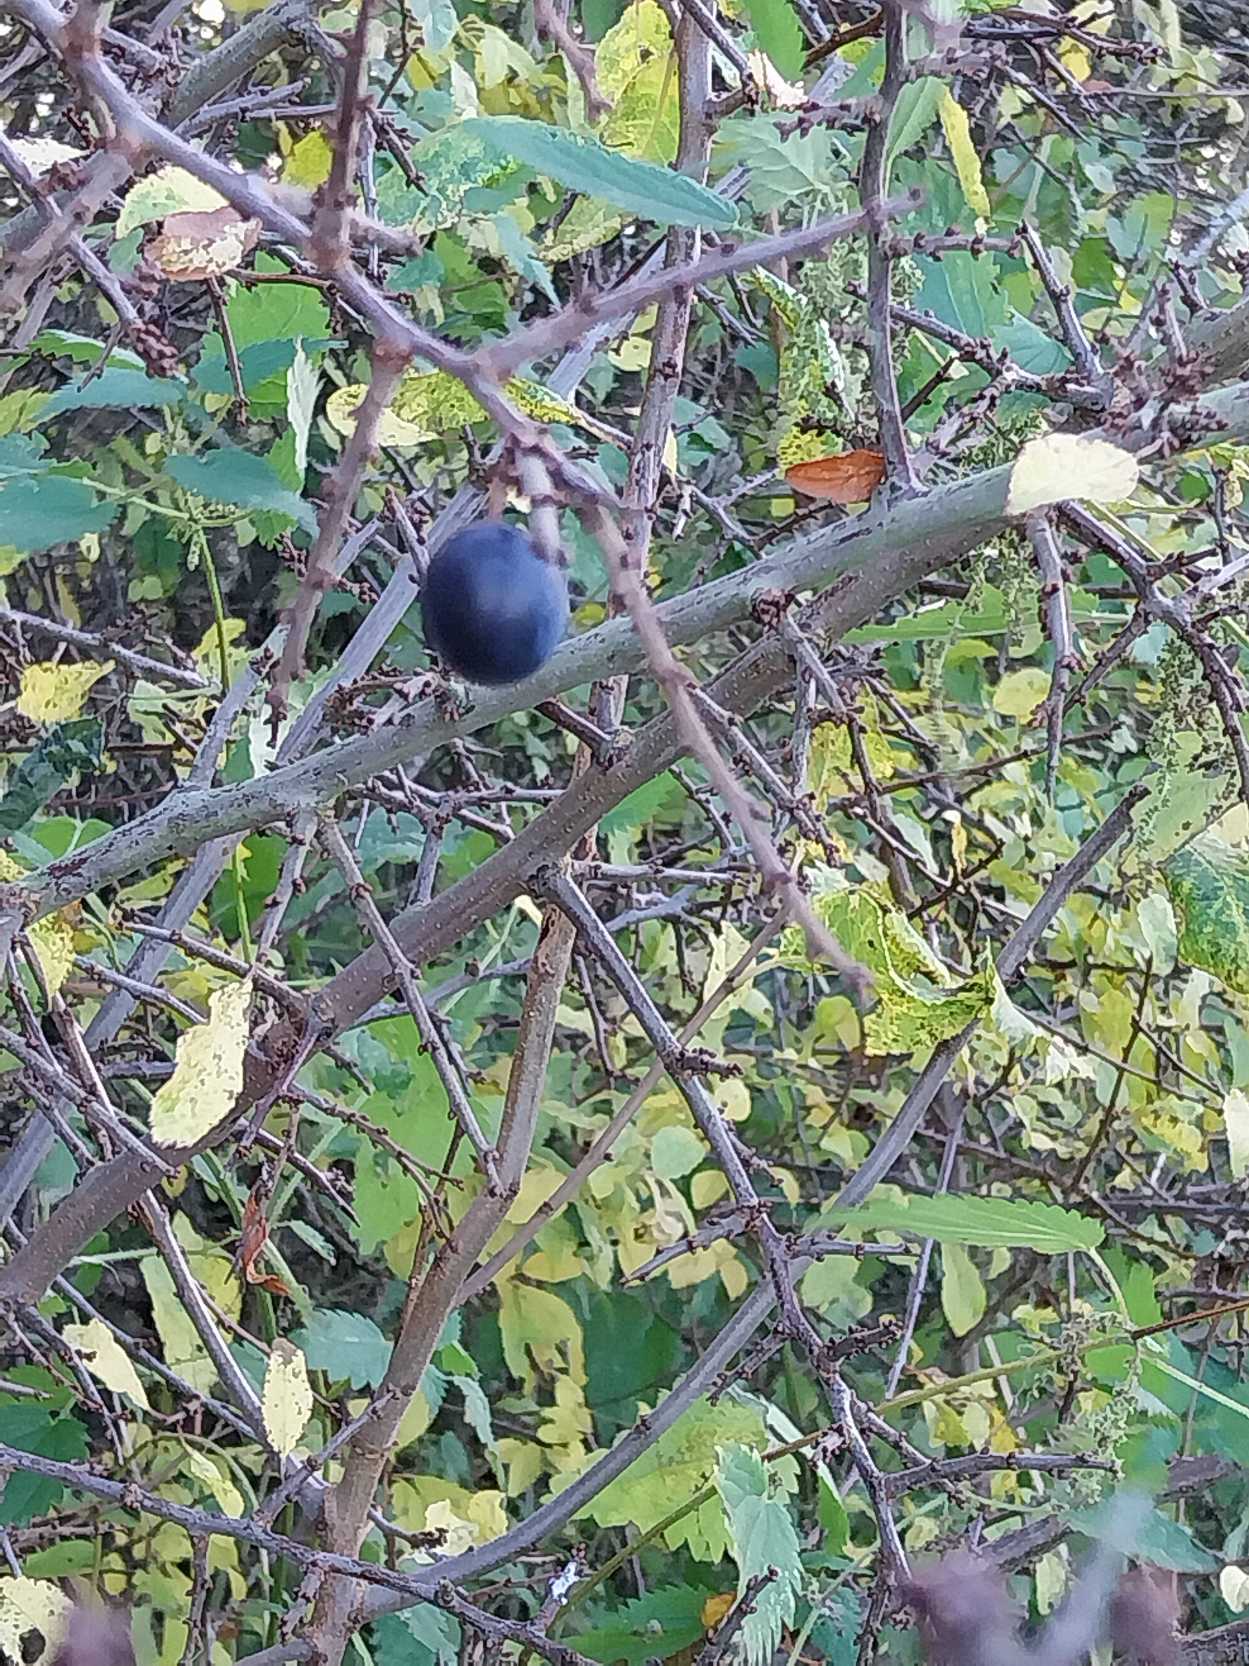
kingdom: Plantae
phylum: Tracheophyta
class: Magnoliopsida
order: Rosales
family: Rosaceae
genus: Prunus
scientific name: Prunus spinosa
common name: Slåen
